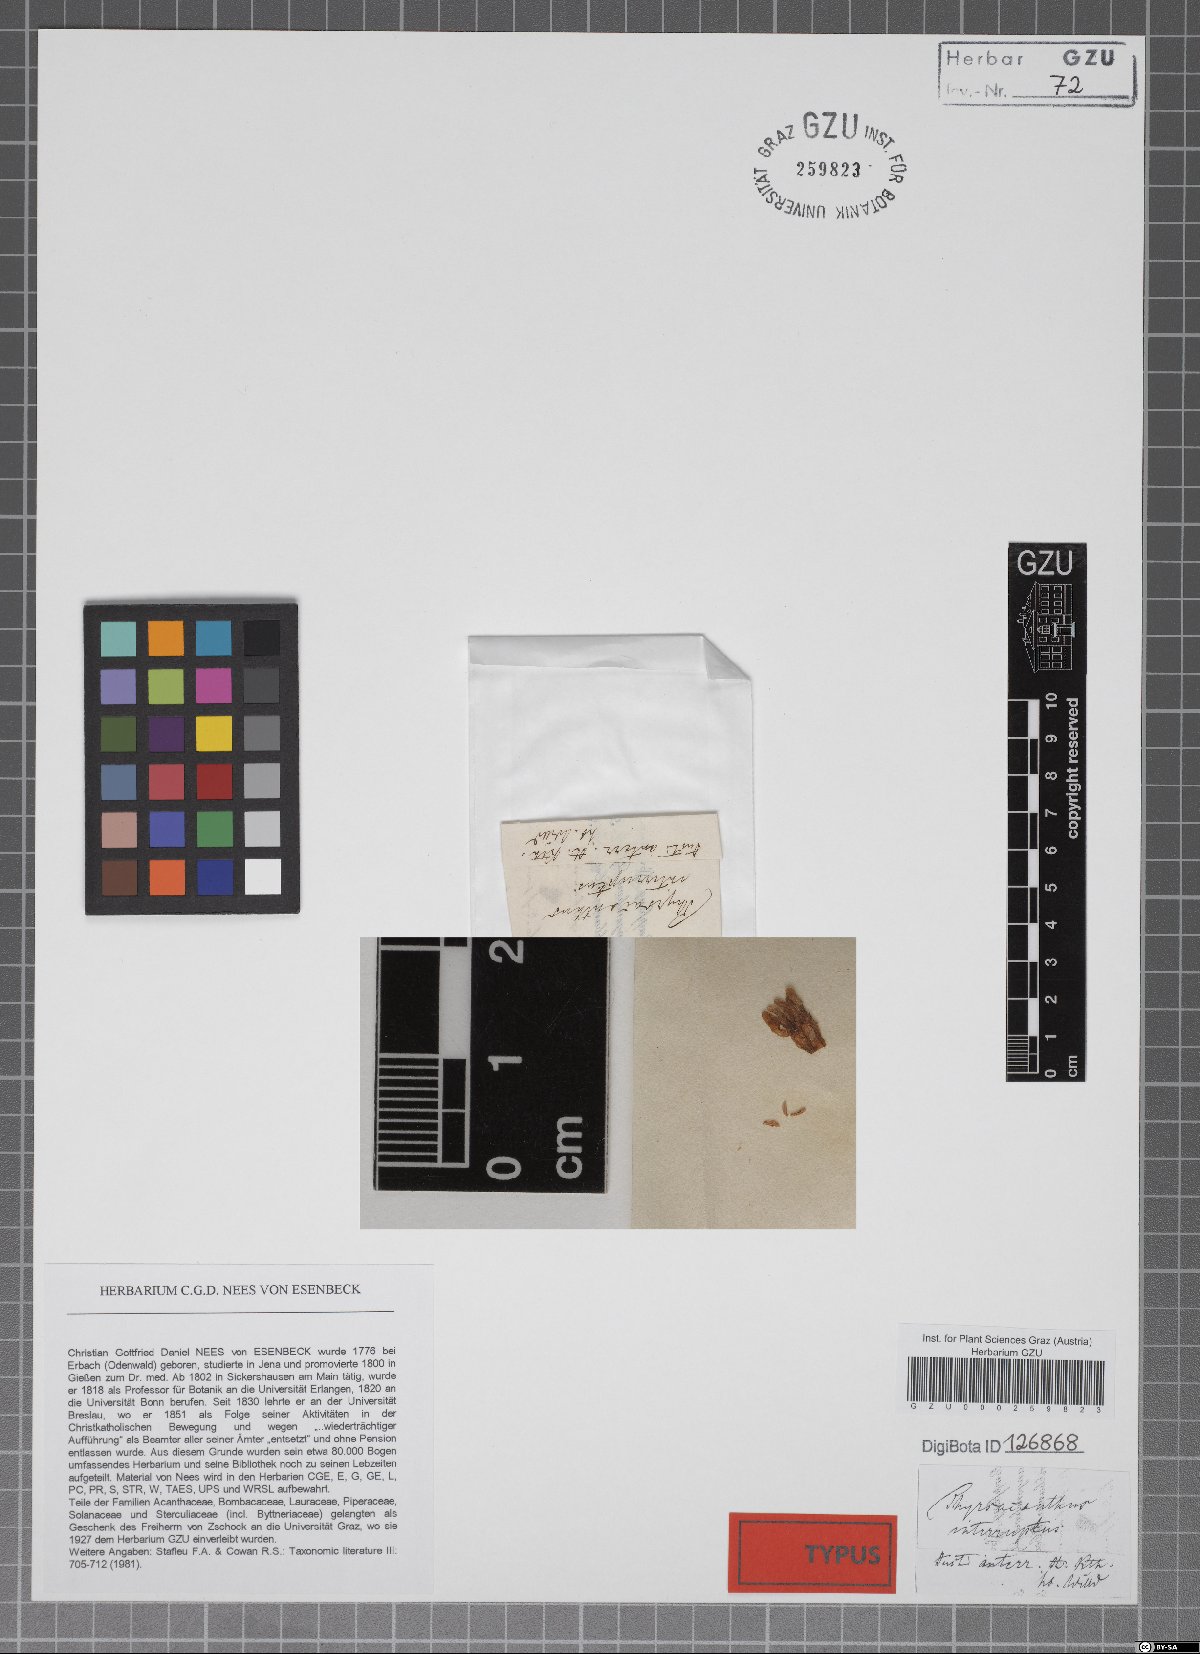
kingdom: Plantae
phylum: Tracheophyta
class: Magnoliopsida
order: Lamiales
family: Acanthaceae
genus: Pseuderanthemum
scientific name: Pseuderanthemum interruptum
